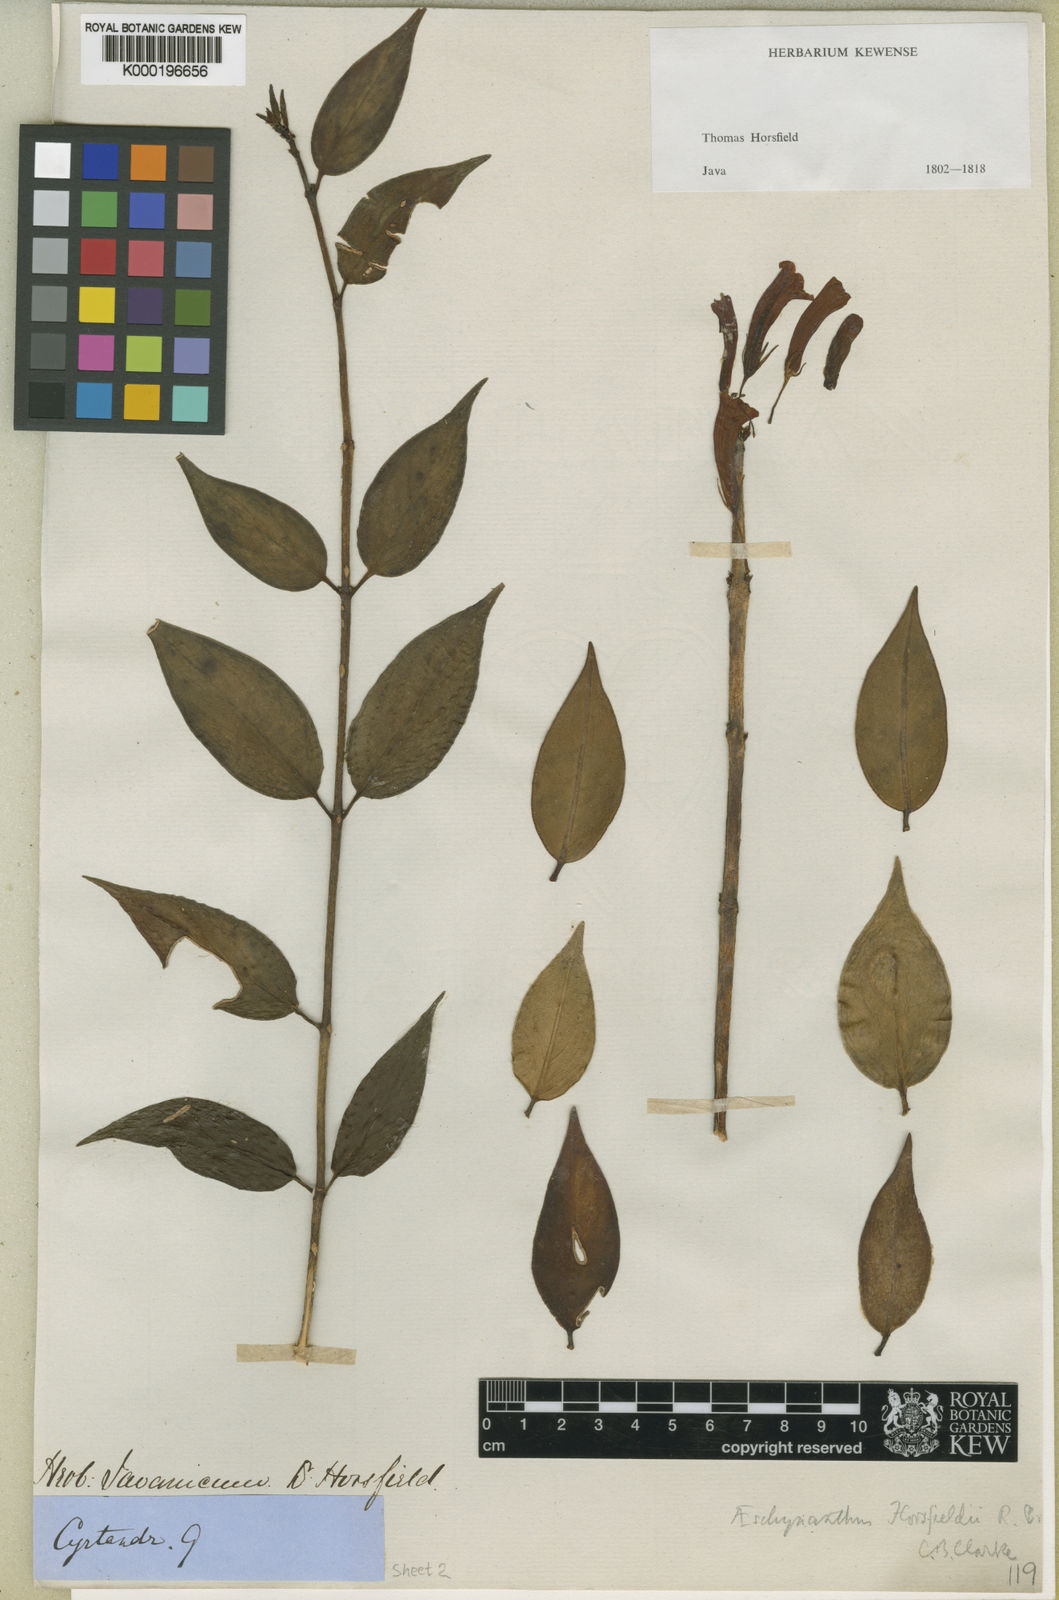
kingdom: Plantae
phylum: Tracheophyta
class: Magnoliopsida
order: Lamiales
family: Gesneriaceae
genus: Aeschynanthus
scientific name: Aeschynanthus horsfieldii
